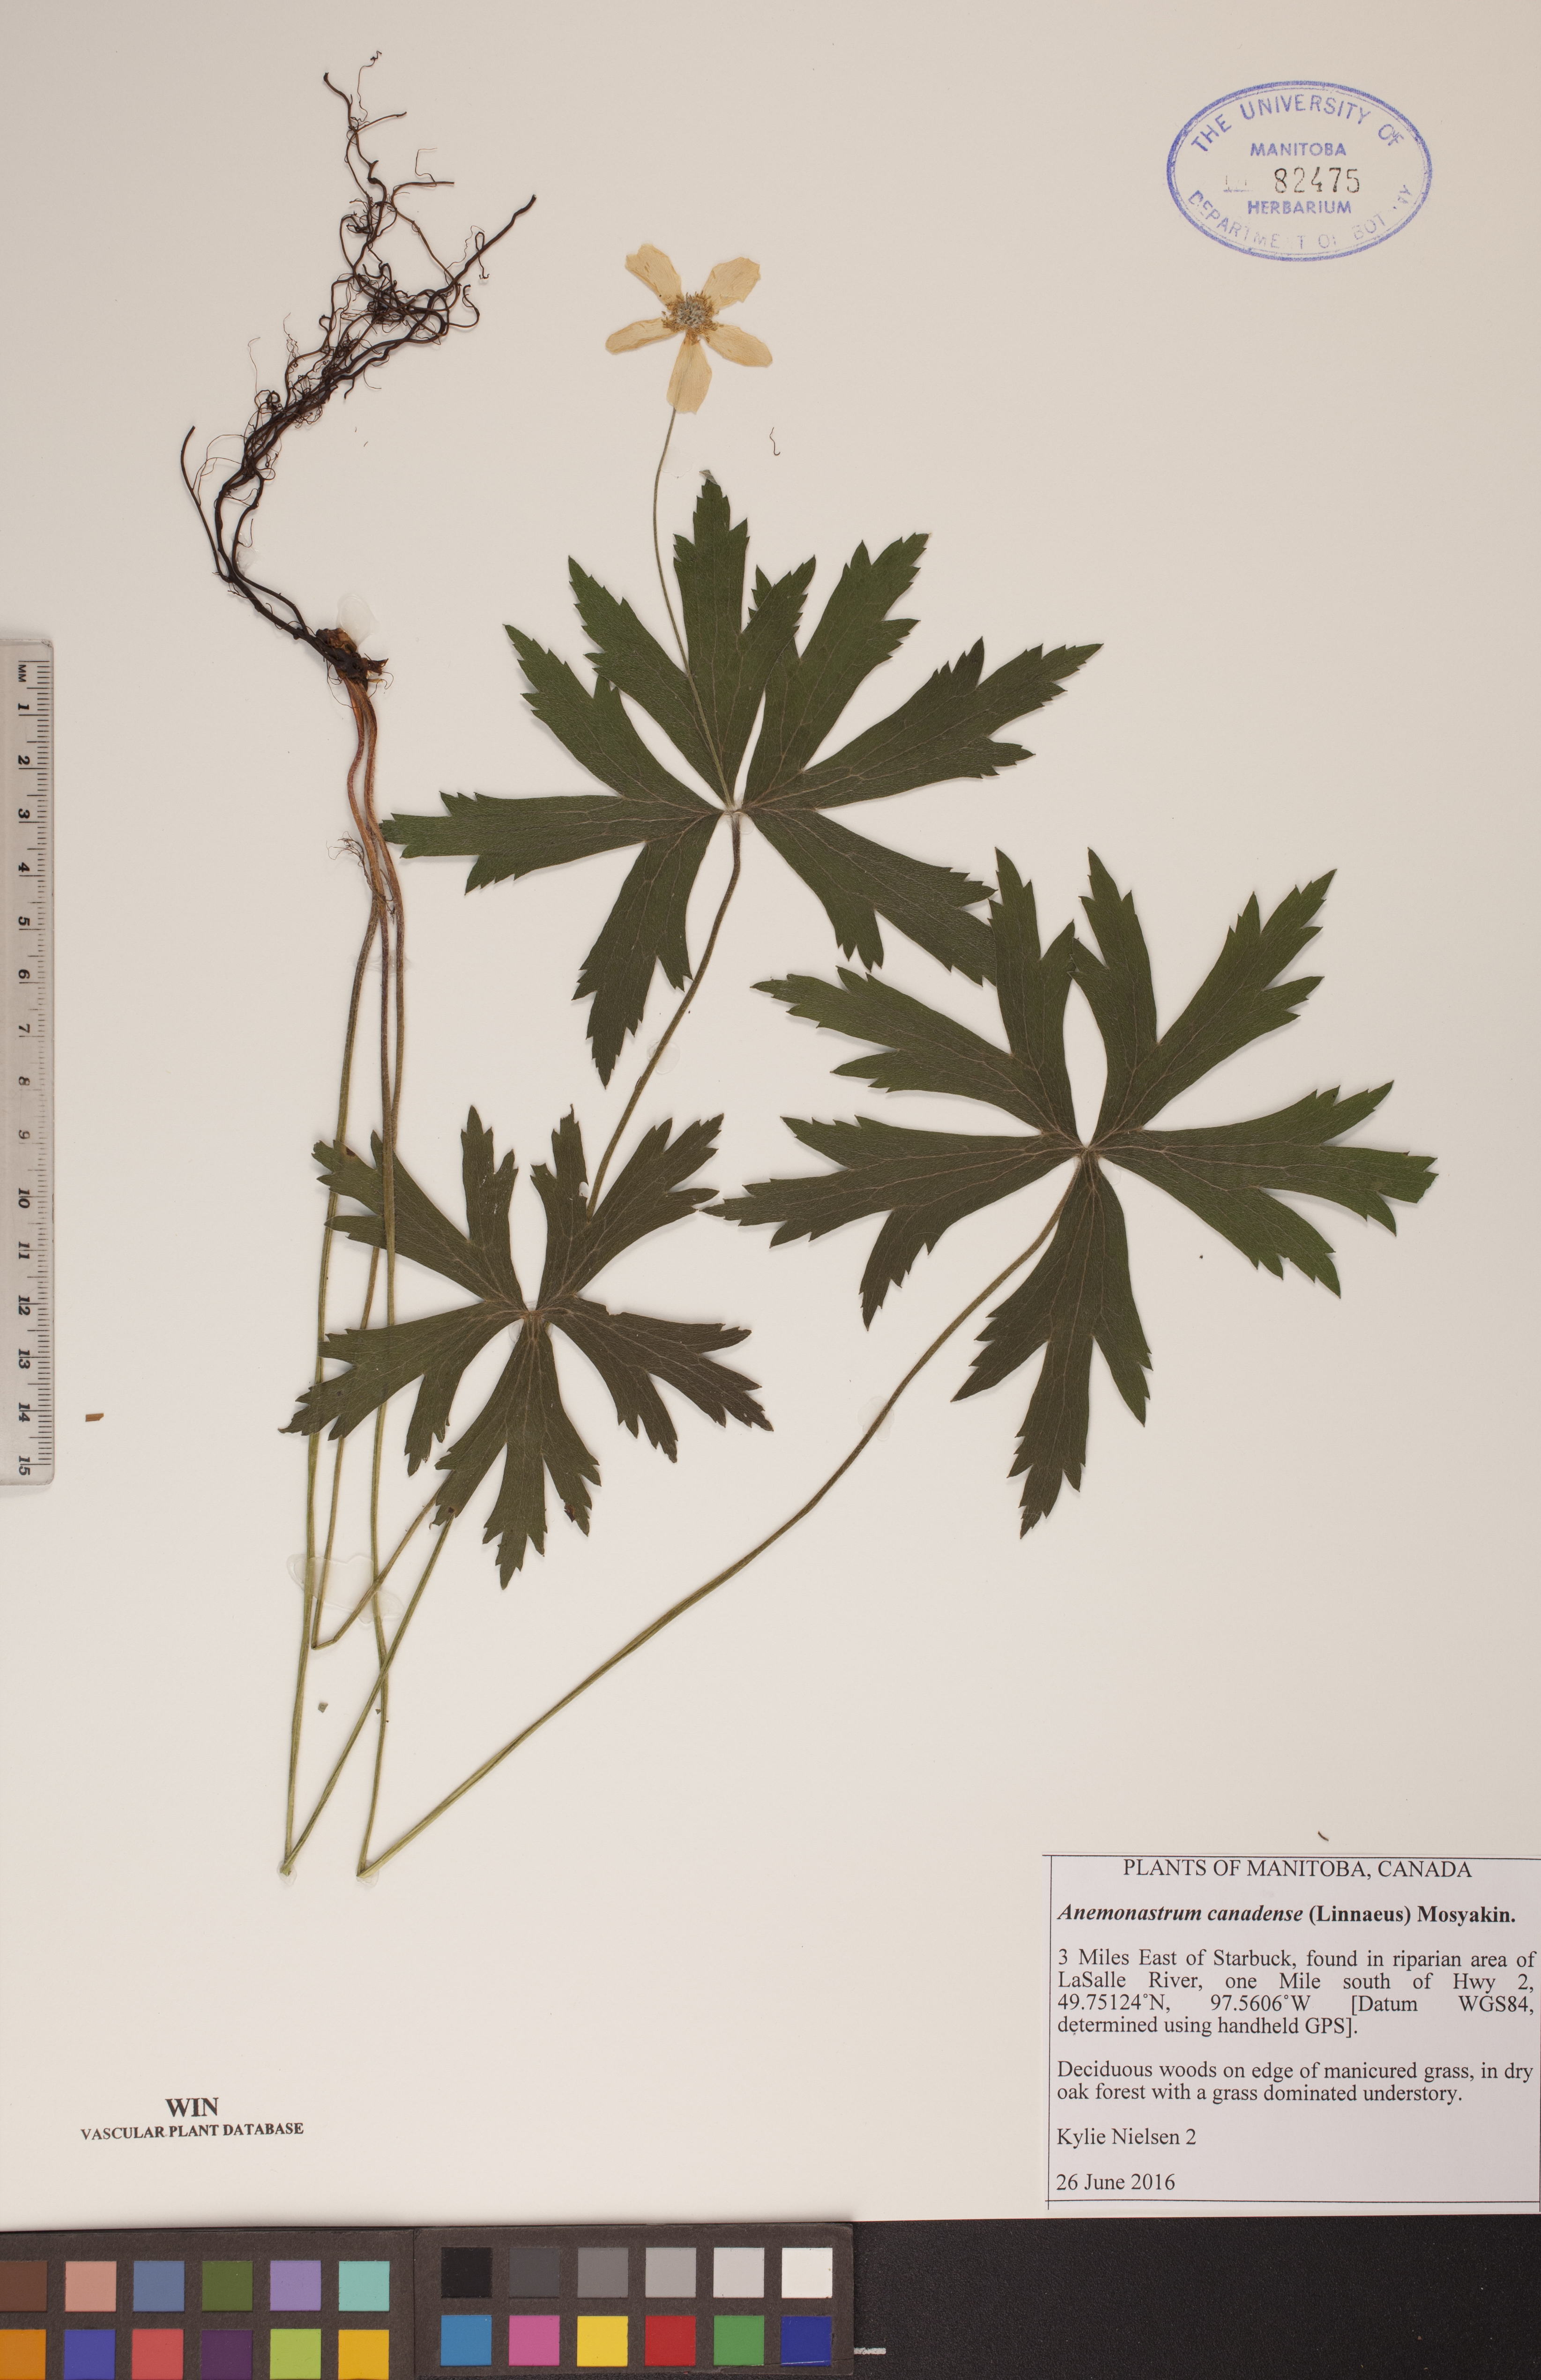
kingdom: Plantae
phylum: Tracheophyta
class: Magnoliopsida
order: Ranunculales
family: Ranunculaceae
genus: Anemonastrum
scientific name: Anemonastrum canadense
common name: Canada anemone
